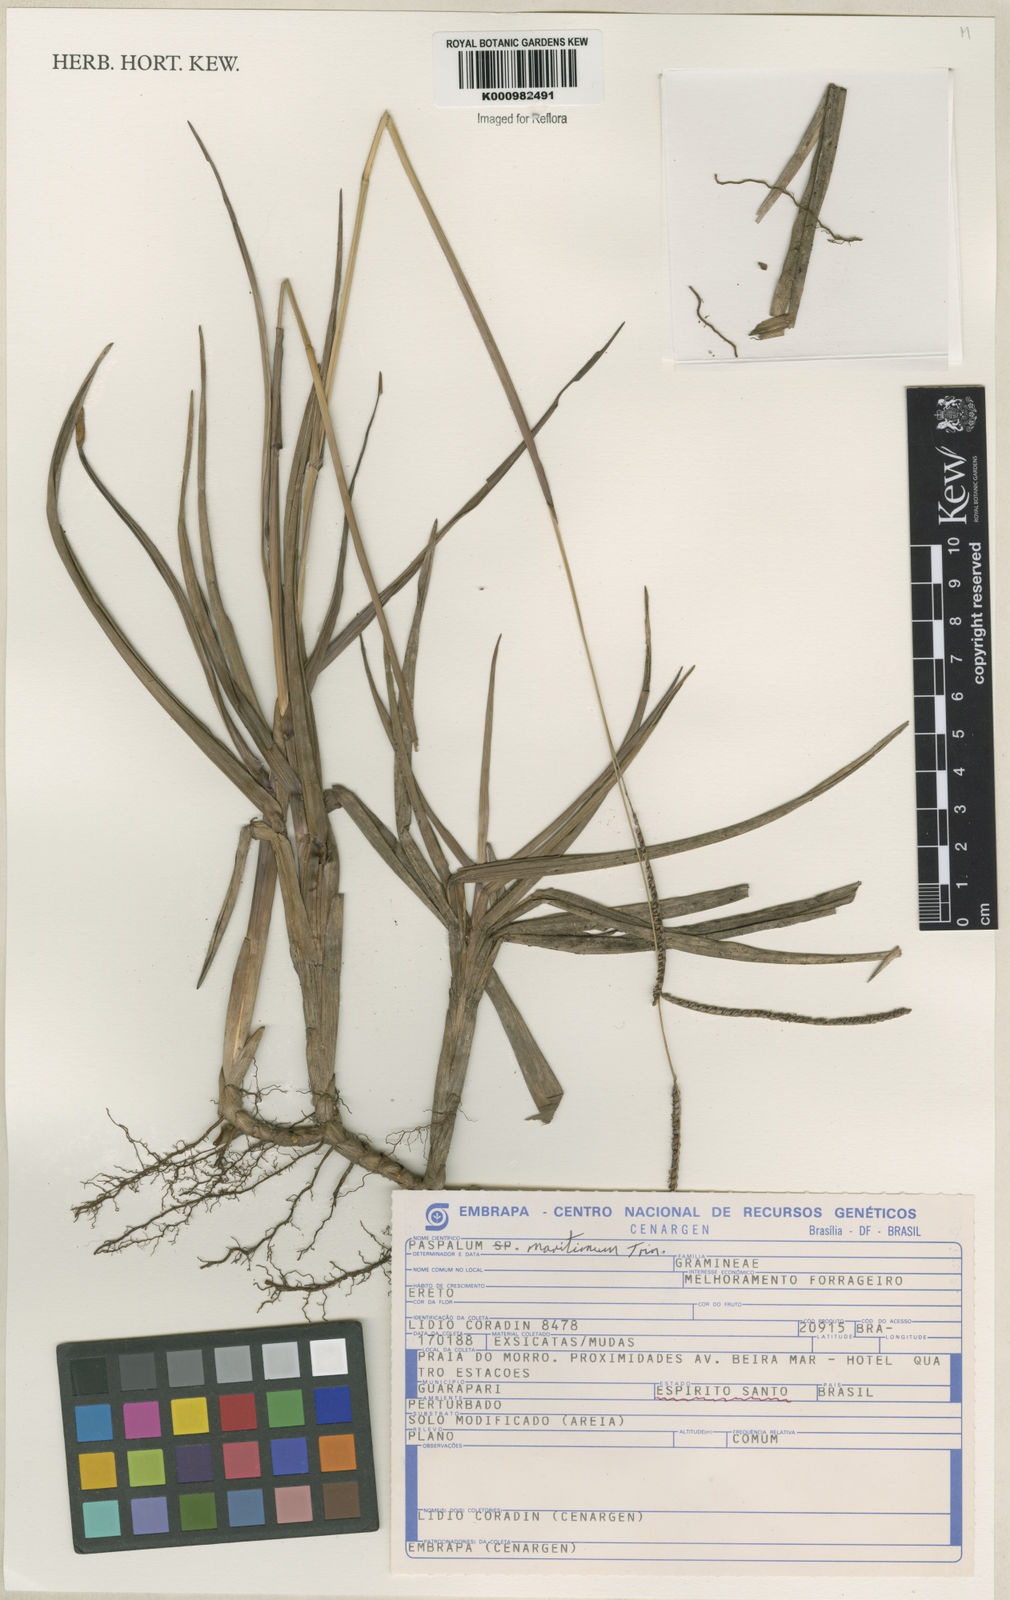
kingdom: Plantae
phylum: Tracheophyta
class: Liliopsida
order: Poales
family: Poaceae
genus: Paspalum
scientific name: Paspalum maritimum
